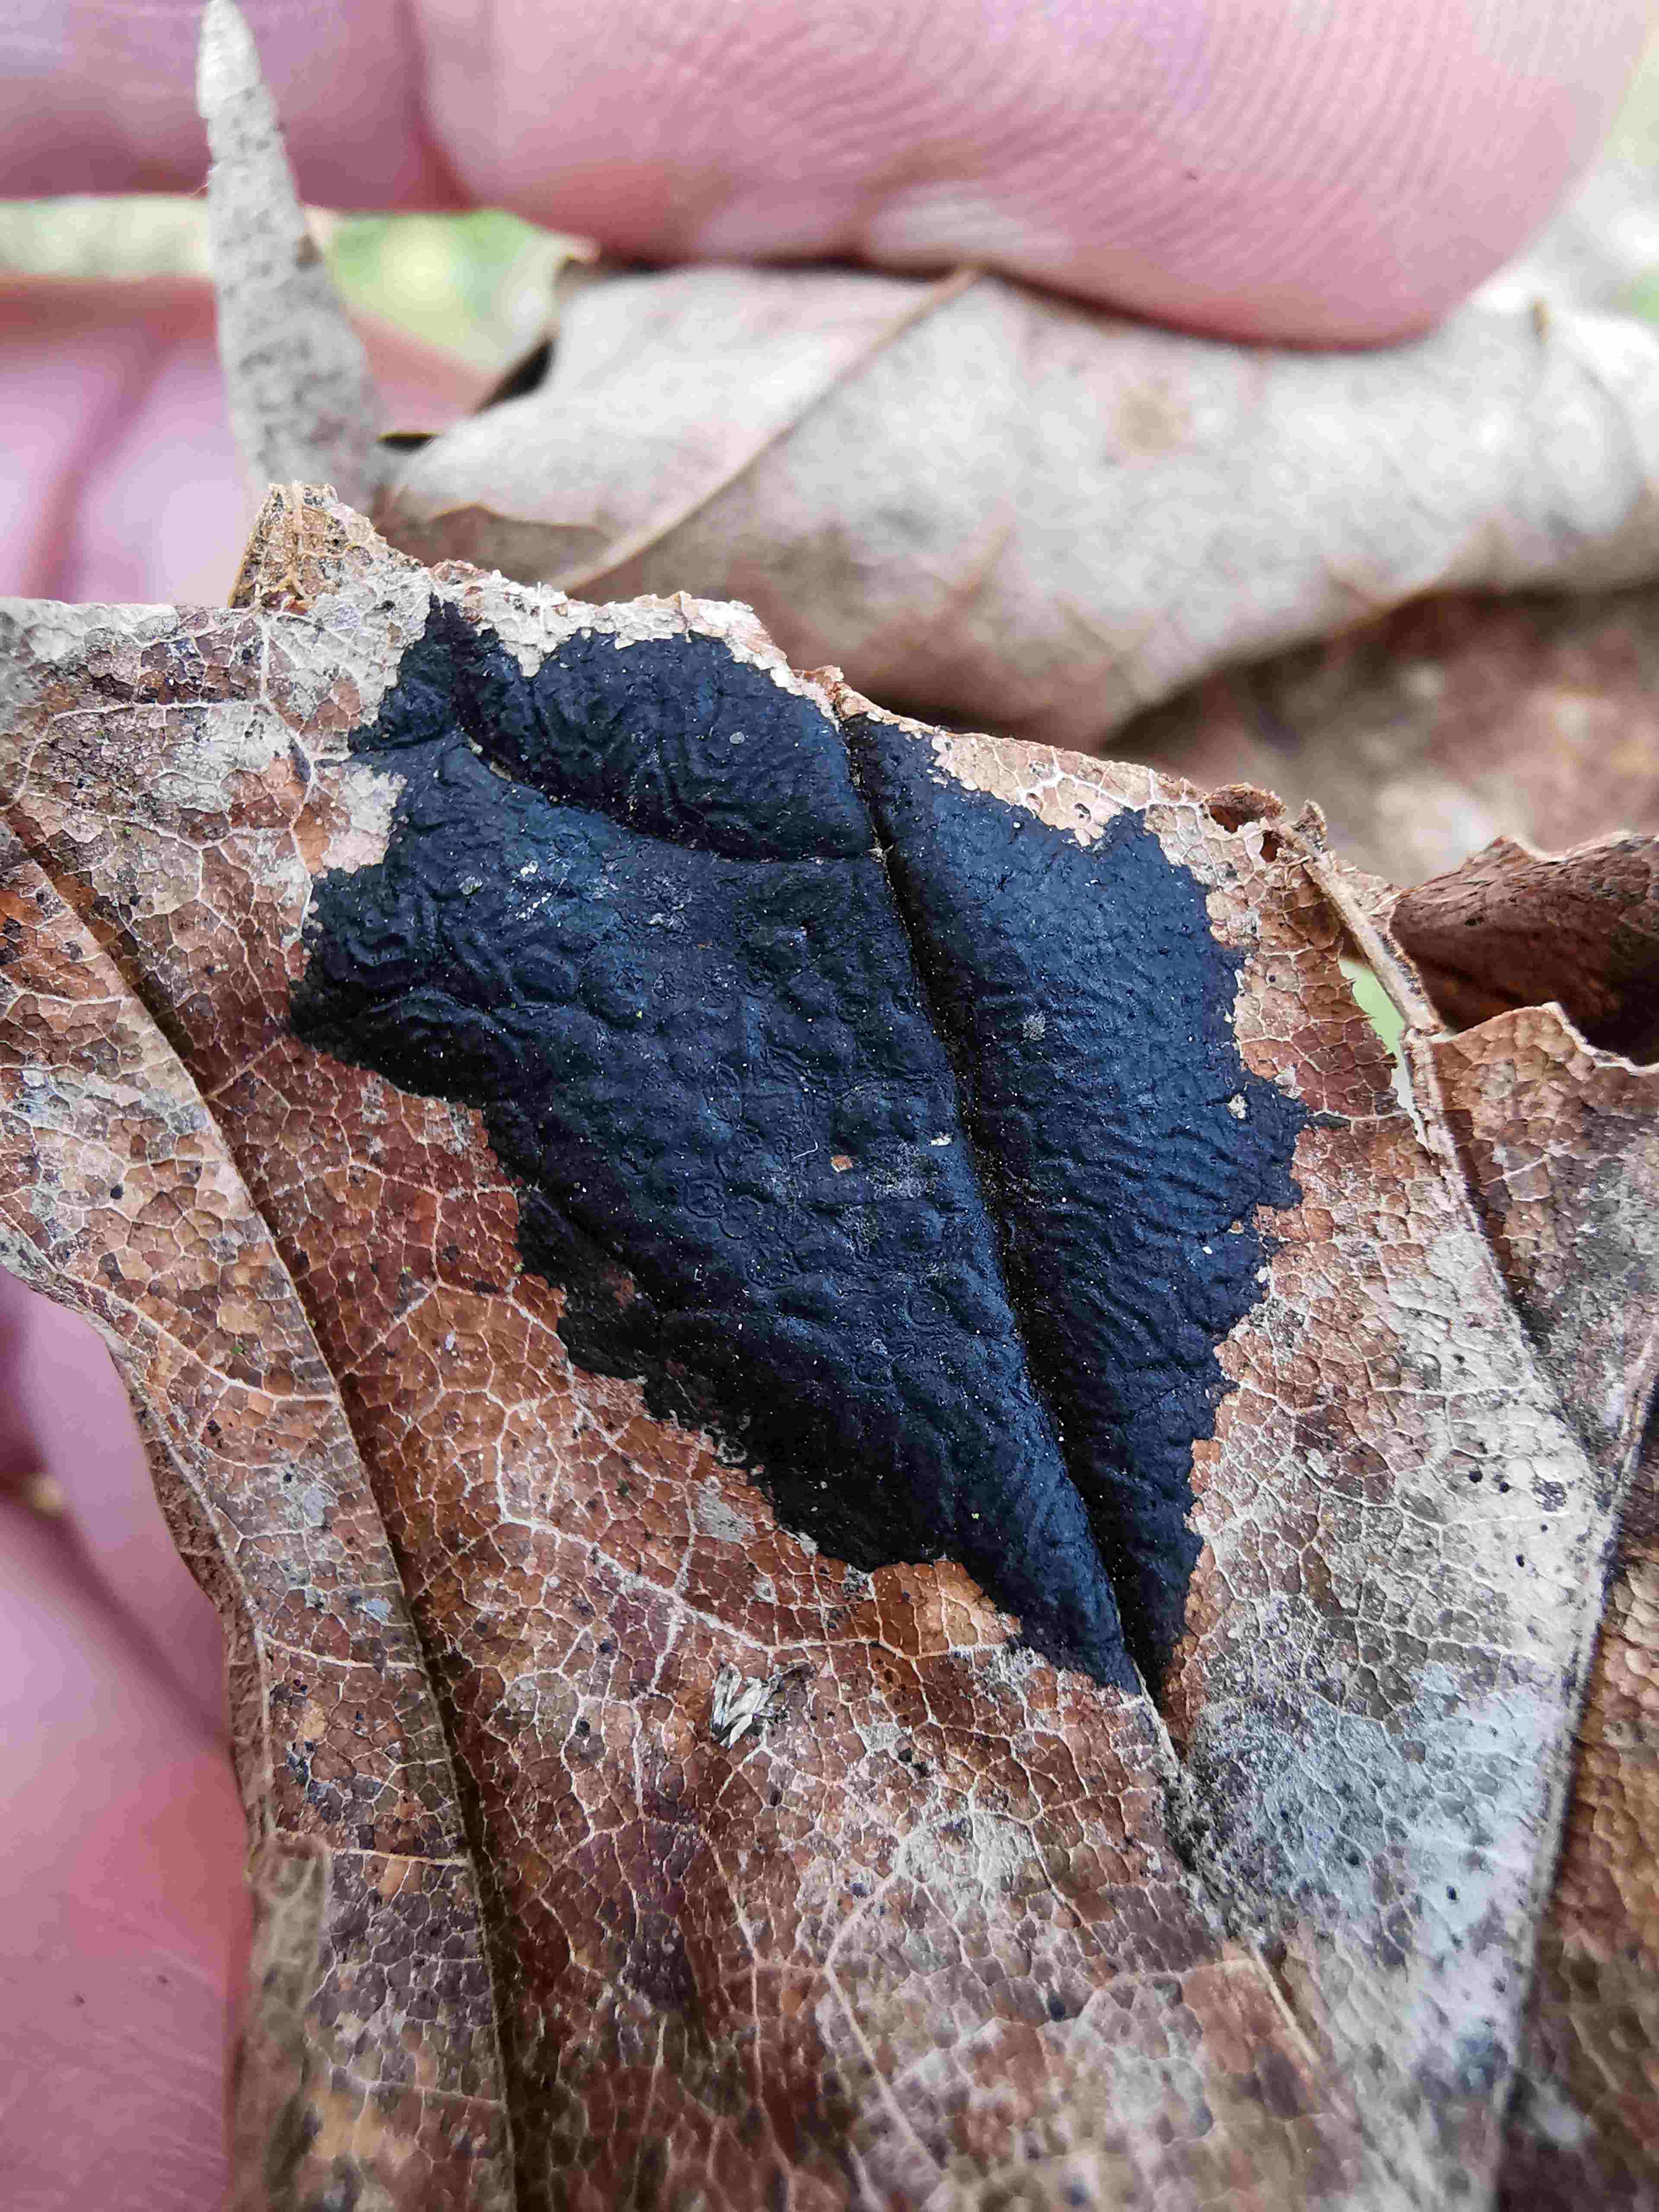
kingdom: Fungi
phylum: Ascomycota
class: Leotiomycetes
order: Rhytismatales
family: Rhytismataceae
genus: Rhytisma
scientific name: Rhytisma acerinum
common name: ahorn-rynkeplet
